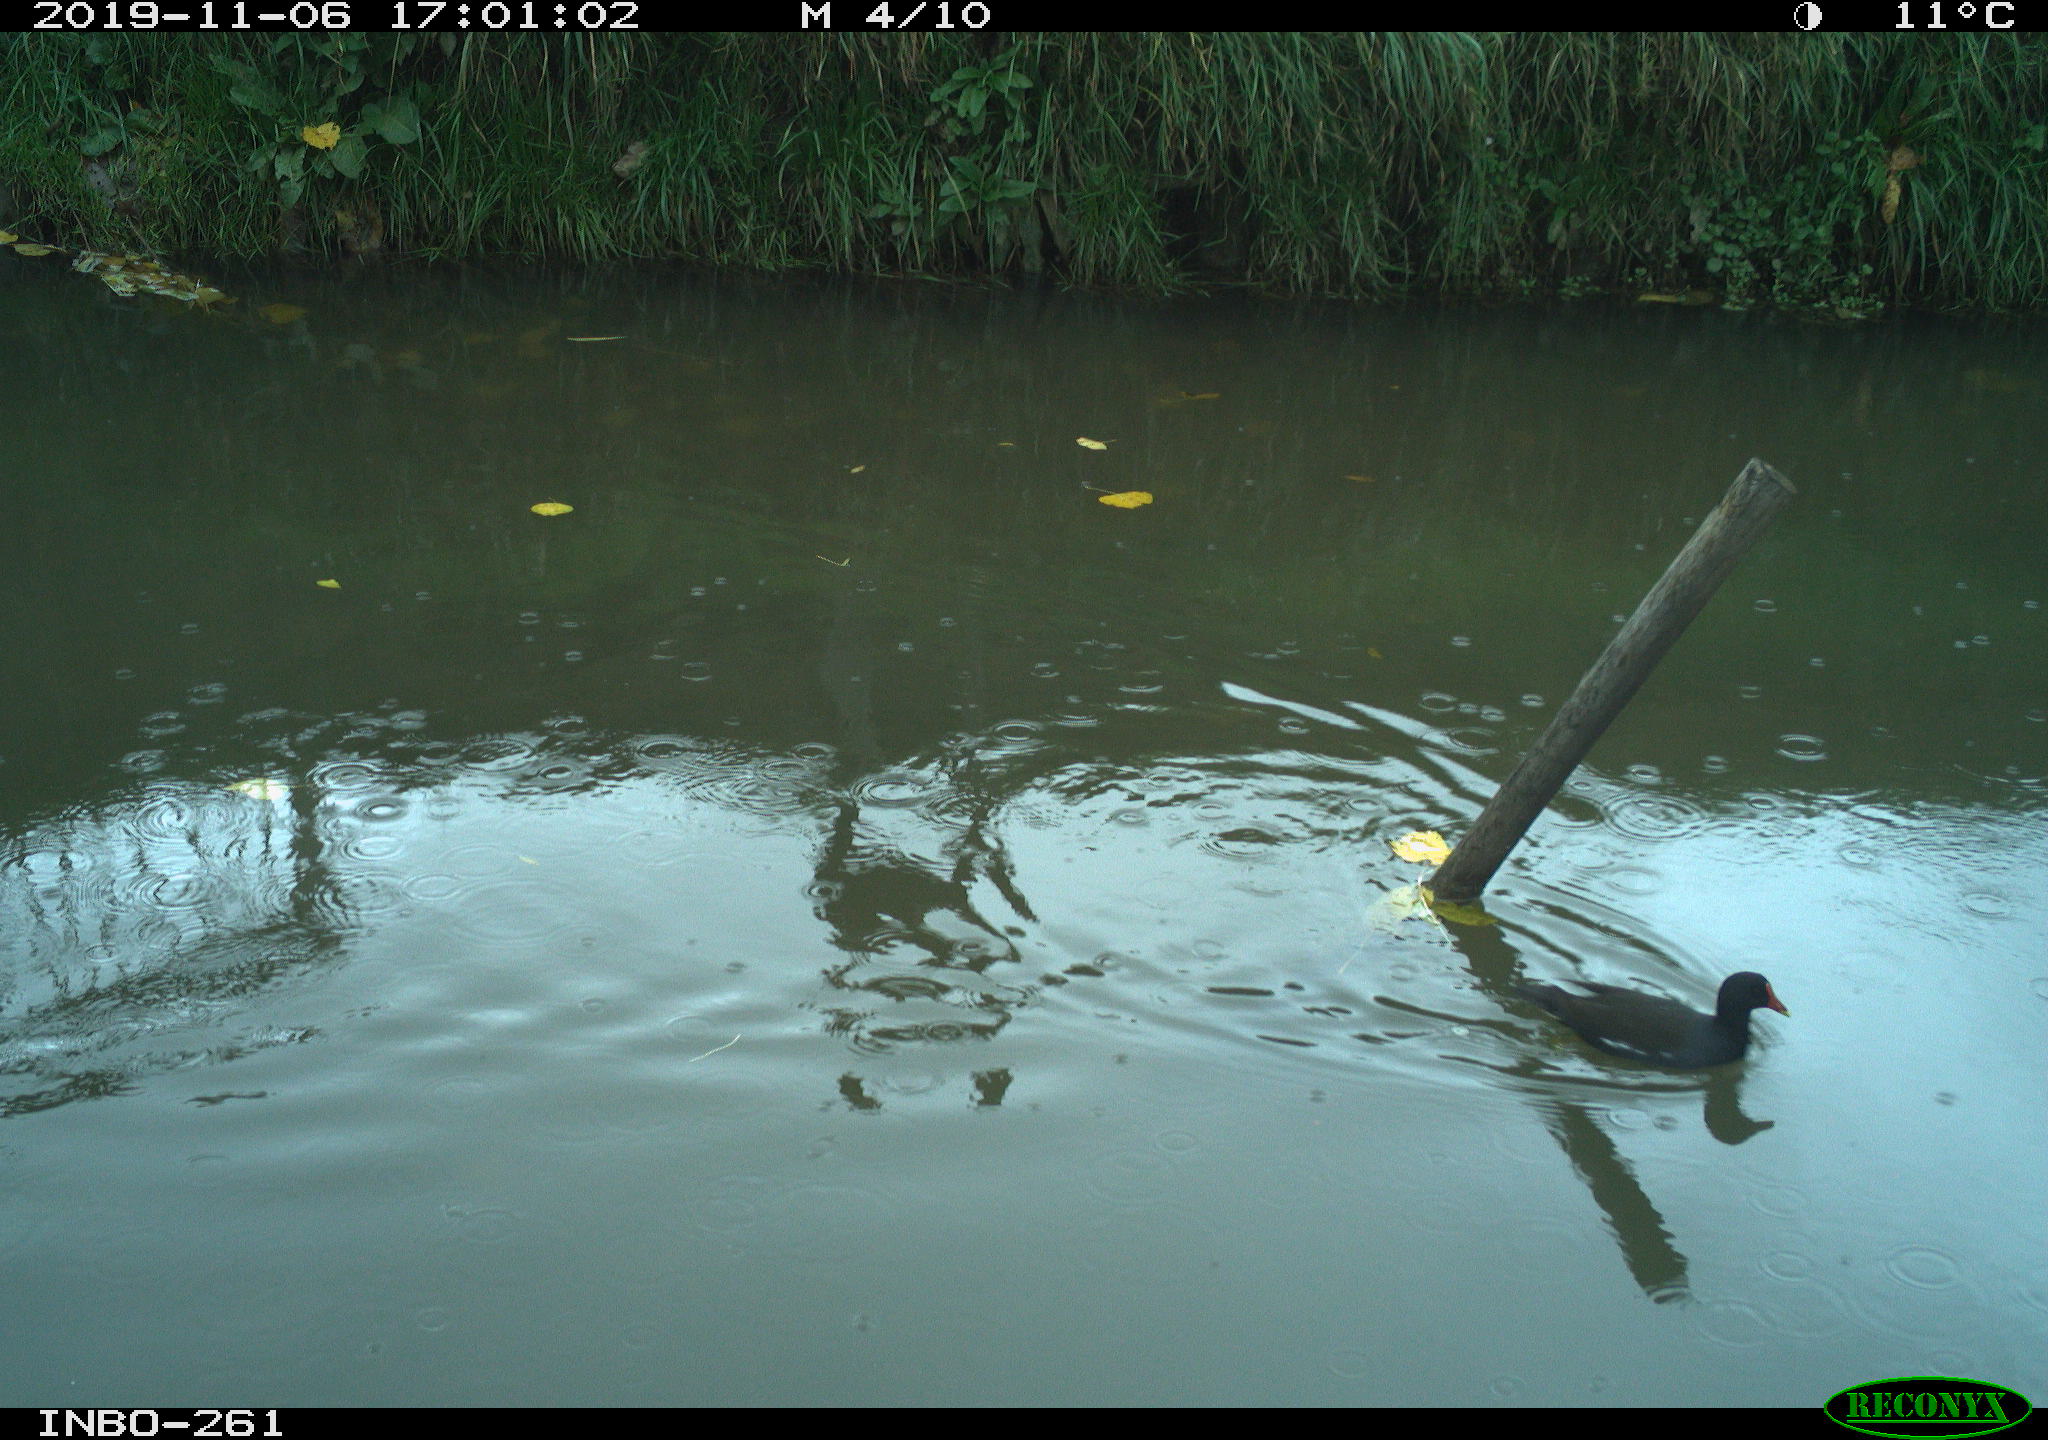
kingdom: Animalia
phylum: Chordata
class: Aves
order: Gruiformes
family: Rallidae
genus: Gallinula
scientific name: Gallinula chloropus
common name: Common moorhen
